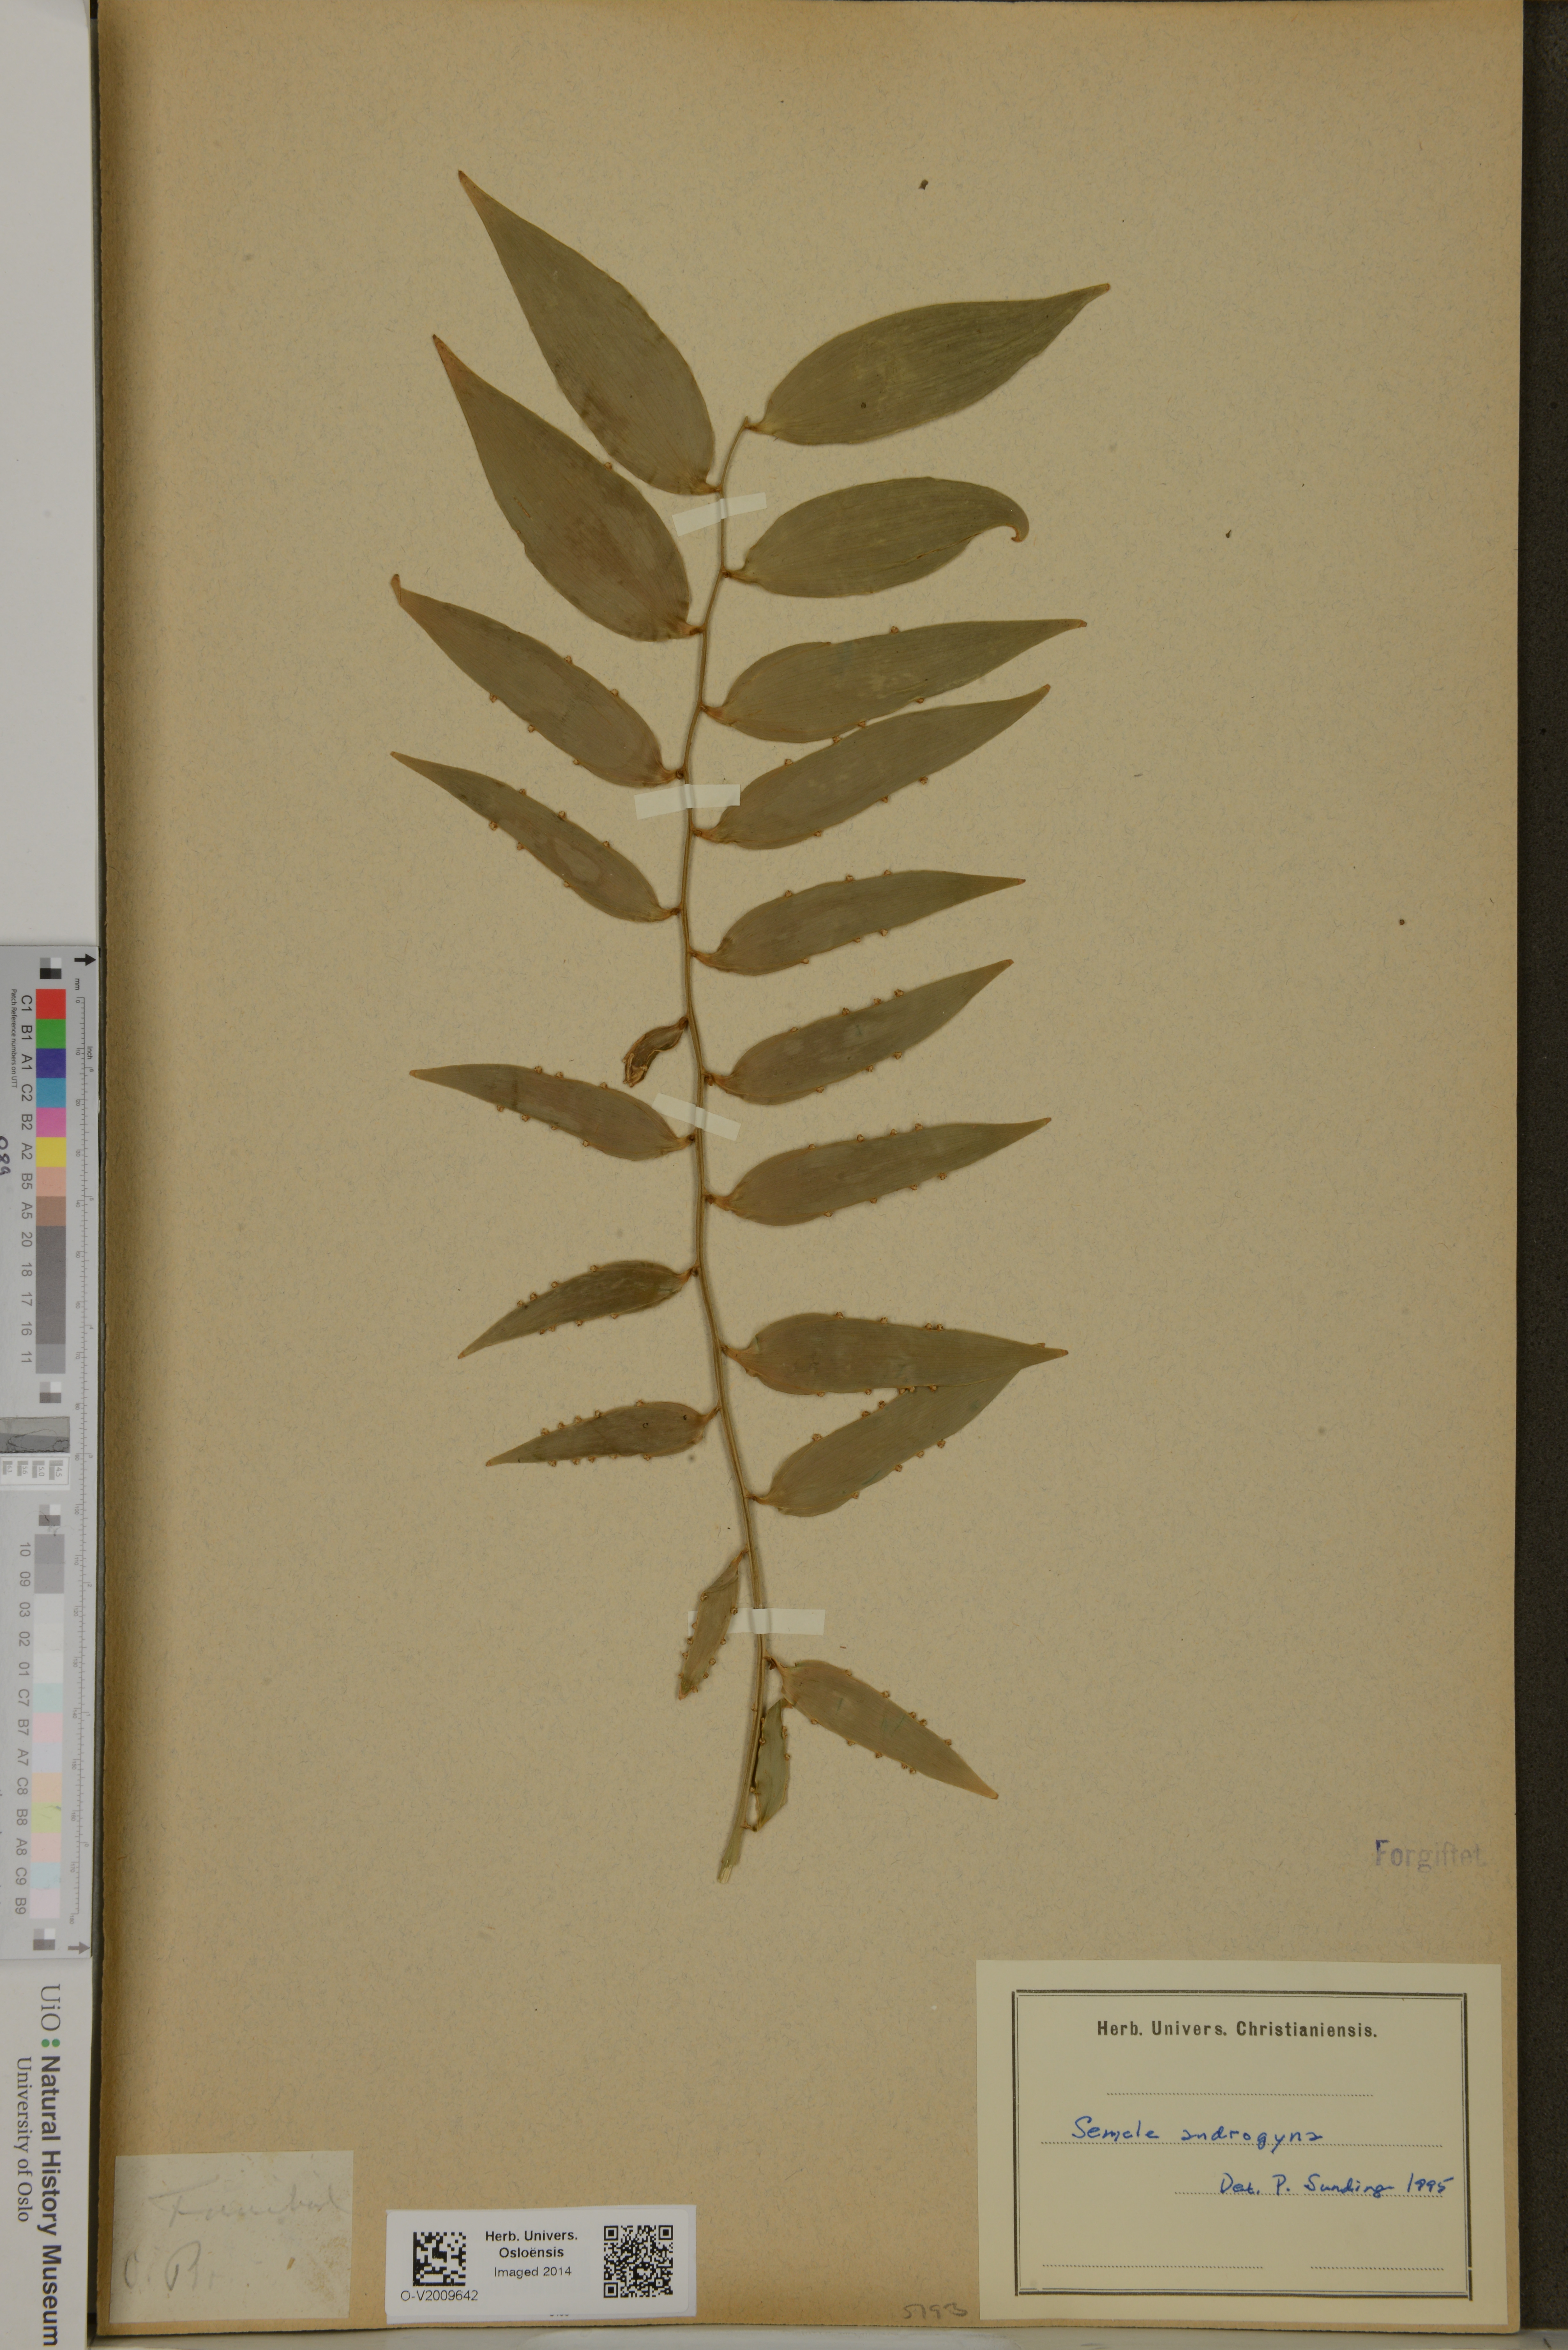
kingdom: Plantae
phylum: Tracheophyta
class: Liliopsida
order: Asparagales
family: Asparagaceae
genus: Semele
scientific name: Semele androgyna
